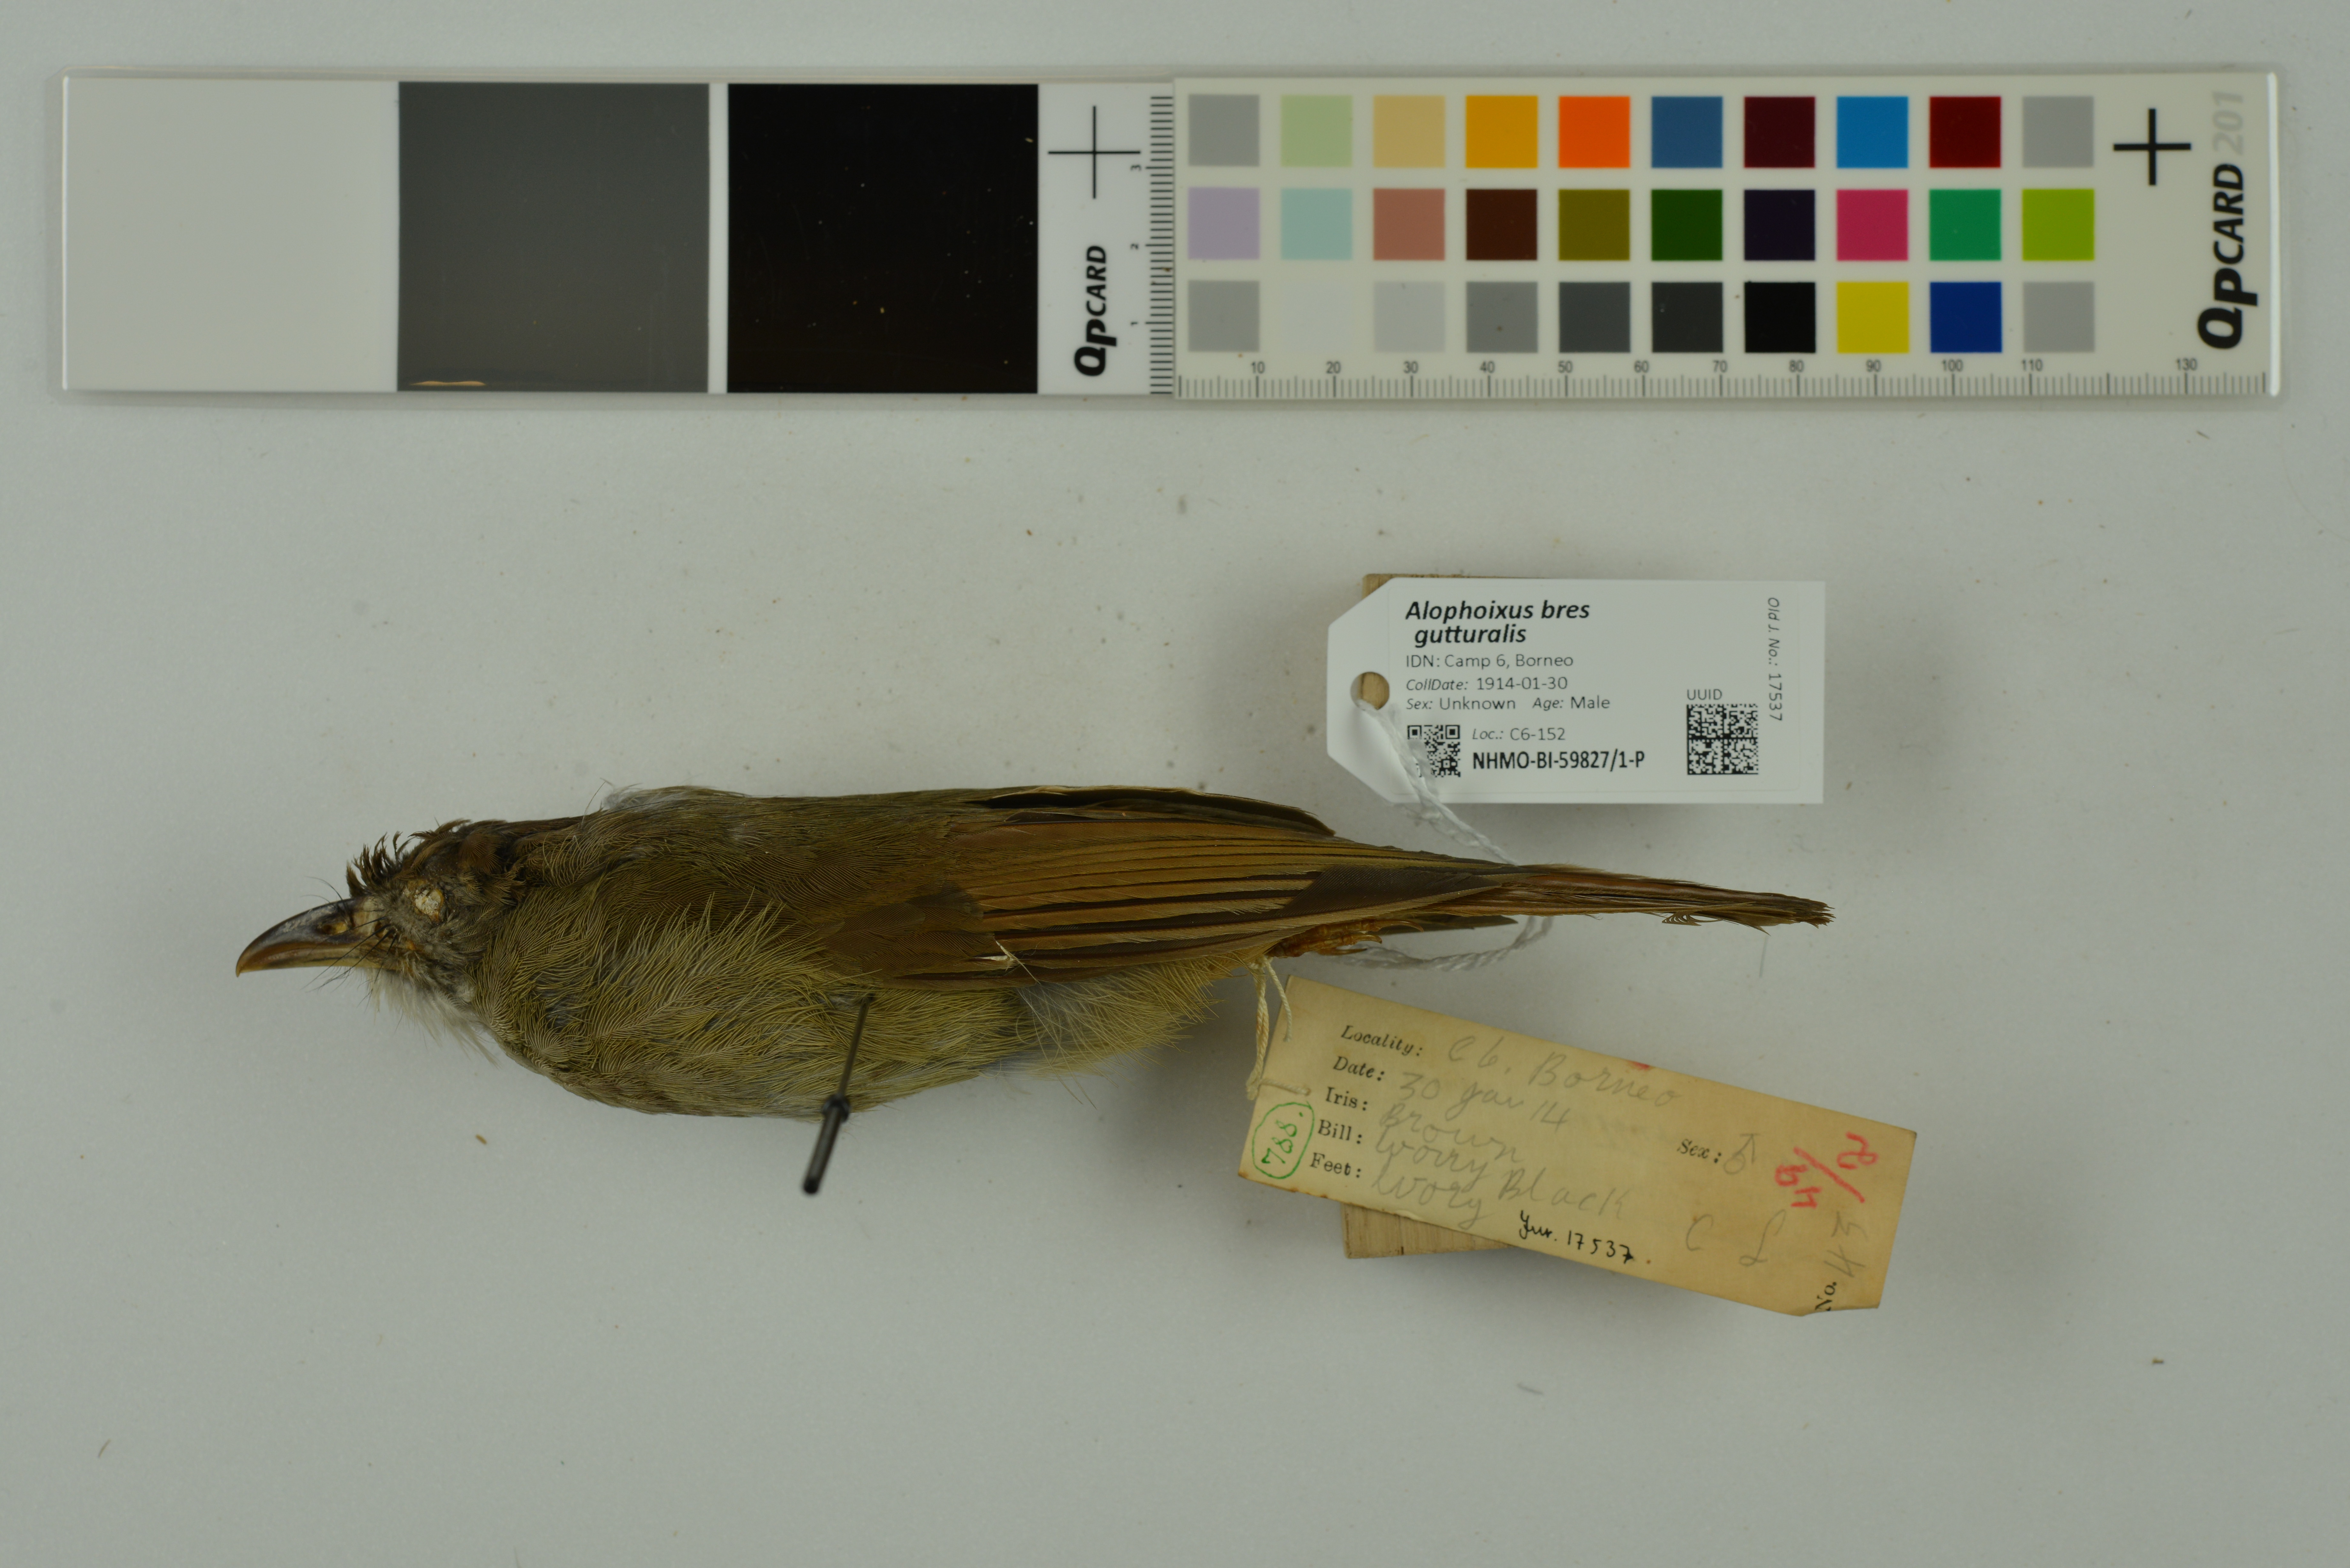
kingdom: Animalia
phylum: Chordata
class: Aves
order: Passeriformes
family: Pycnonotidae
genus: Alophoixus
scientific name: Alophoixus bres
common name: Gray-cheeked bulbul
